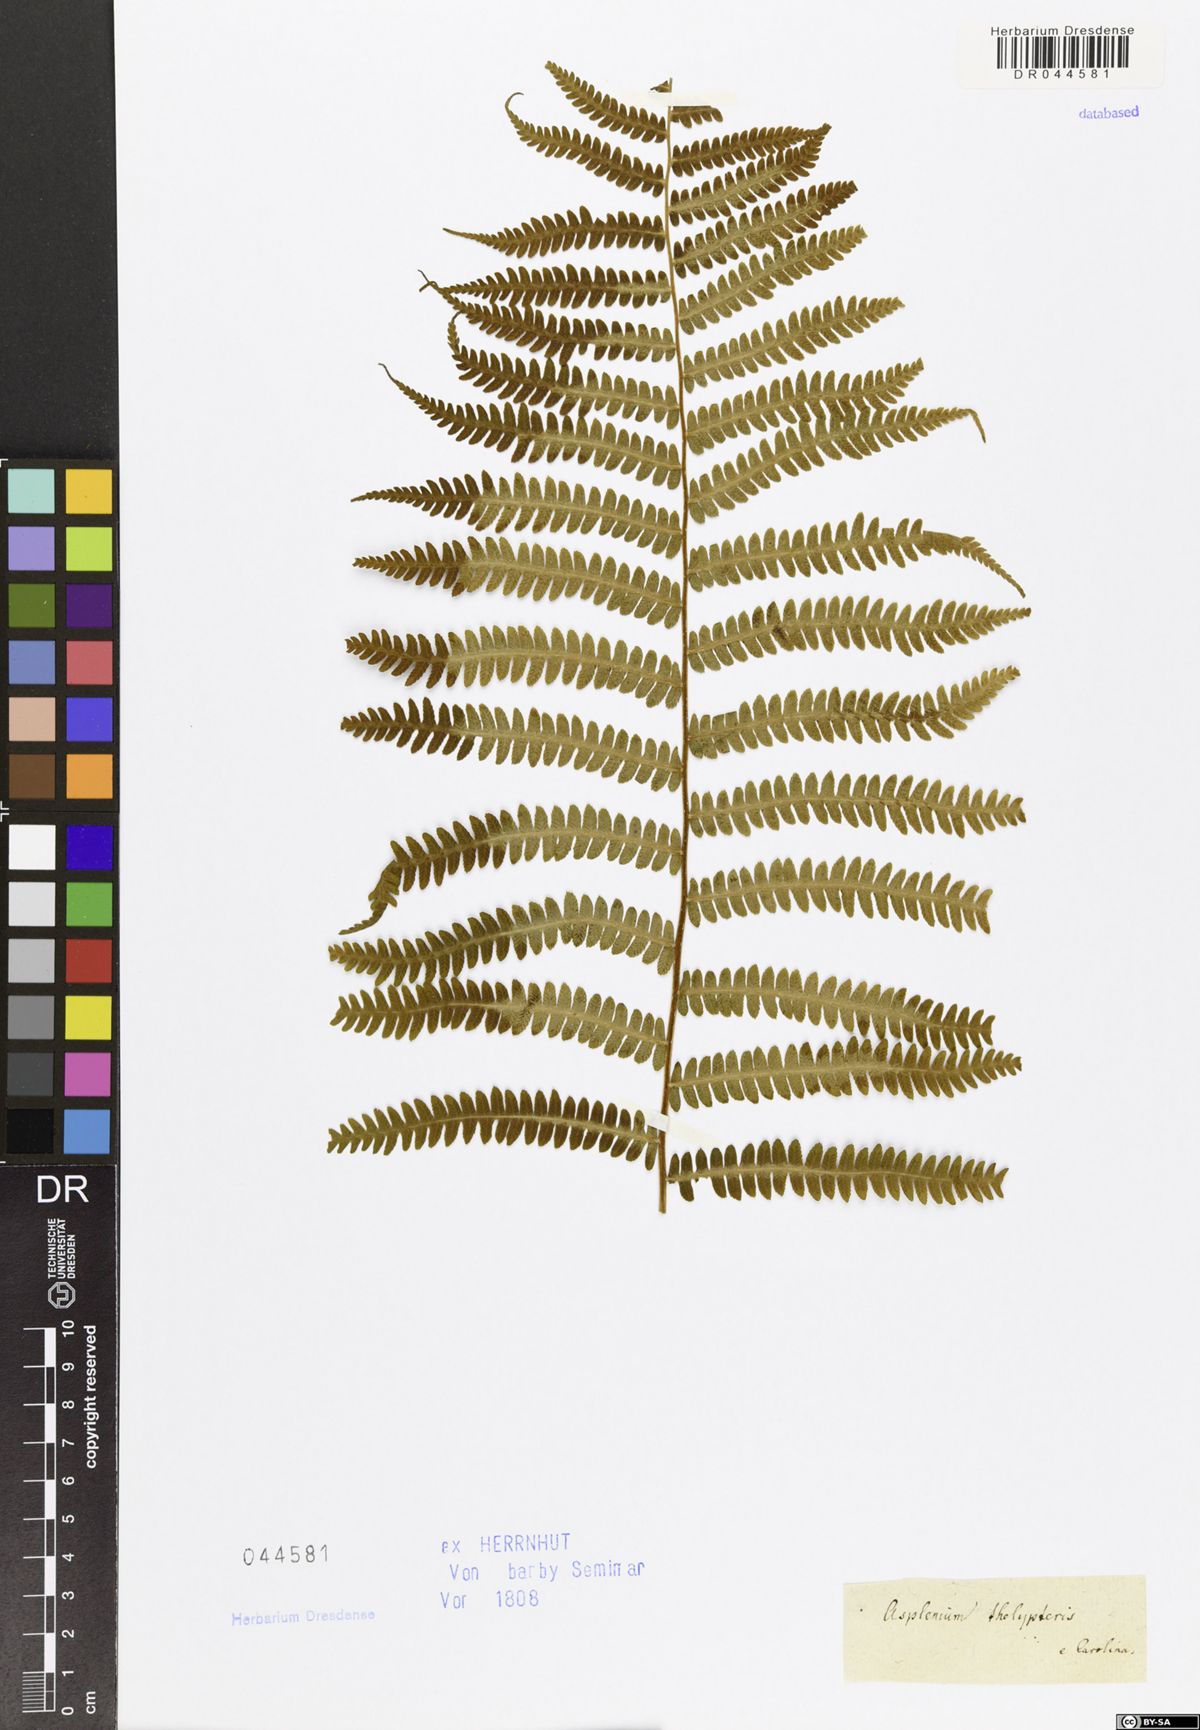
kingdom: Plantae
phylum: Tracheophyta
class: Polypodiopsida
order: Polypodiales
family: Thelypteridaceae
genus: Thelypteris
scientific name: Thelypteris palustris
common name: Marsh fern
